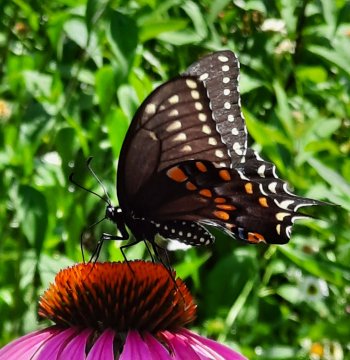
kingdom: Animalia
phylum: Arthropoda
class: Insecta
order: Lepidoptera
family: Papilionidae
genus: Papilio
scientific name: Papilio polyxenes
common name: Black Swallowtail
